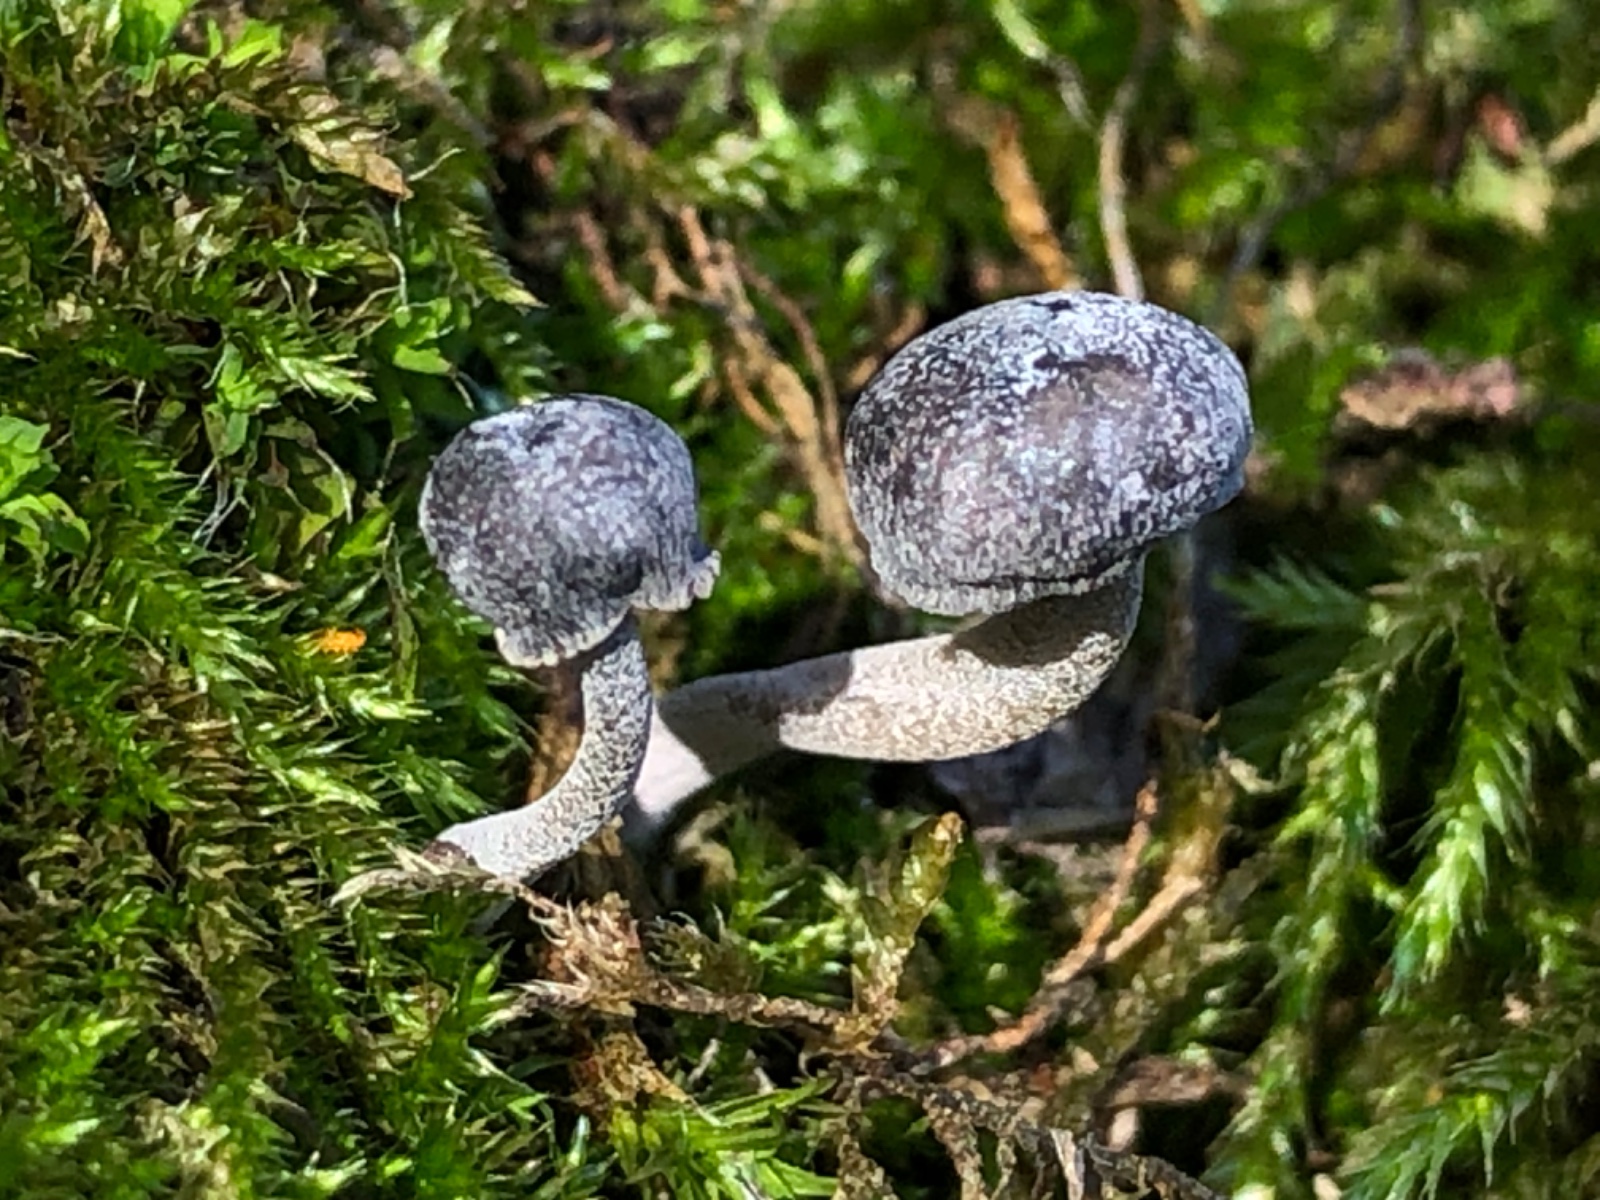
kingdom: Fungi
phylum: Basidiomycota
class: Agaricomycetes
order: Agaricales
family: Mycenaceae
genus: Mycena
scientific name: Mycena pseudocorticola
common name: gråblå bark-huesvamp
